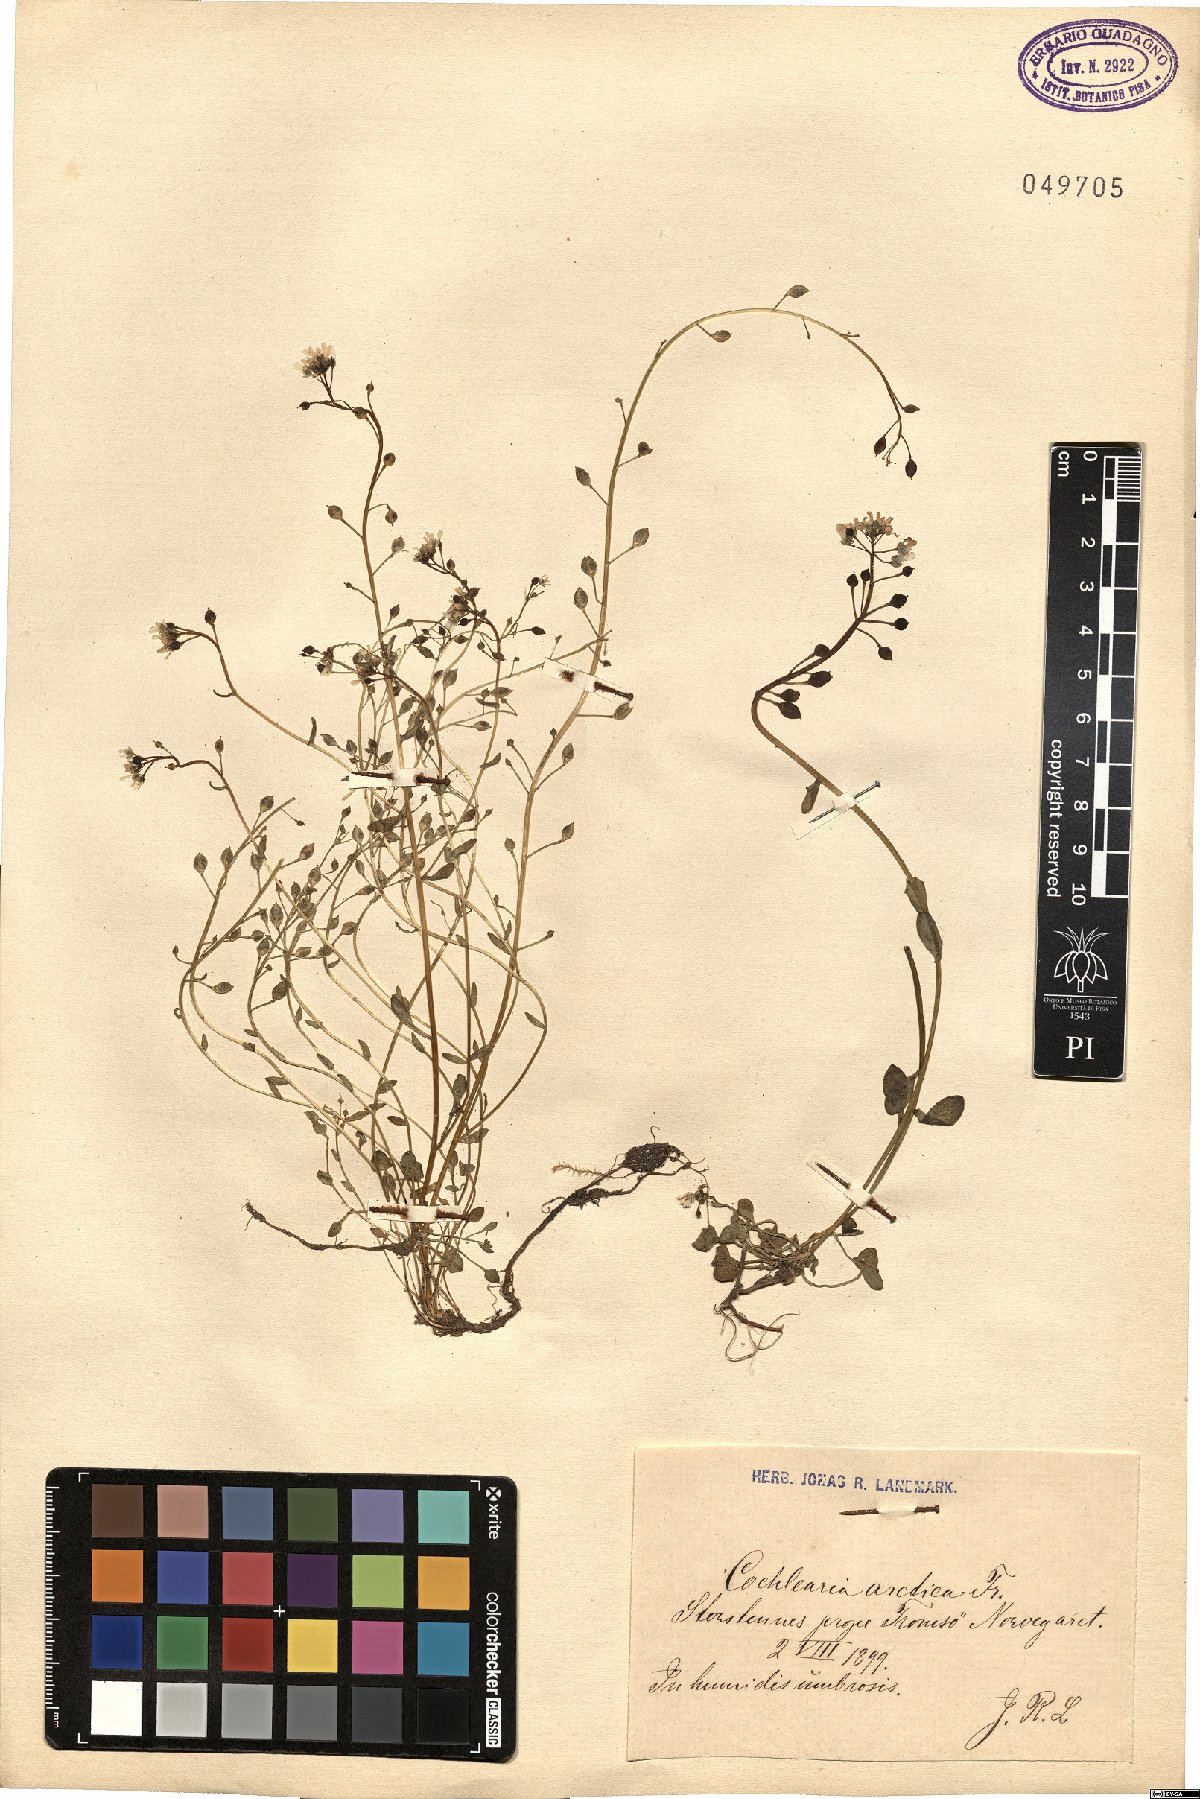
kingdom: Plantae
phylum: Tracheophyta
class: Magnoliopsida
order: Brassicales
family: Brassicaceae
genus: Cochlearia
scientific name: Cochlearia groenlandica
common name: Danish scurvygrass
